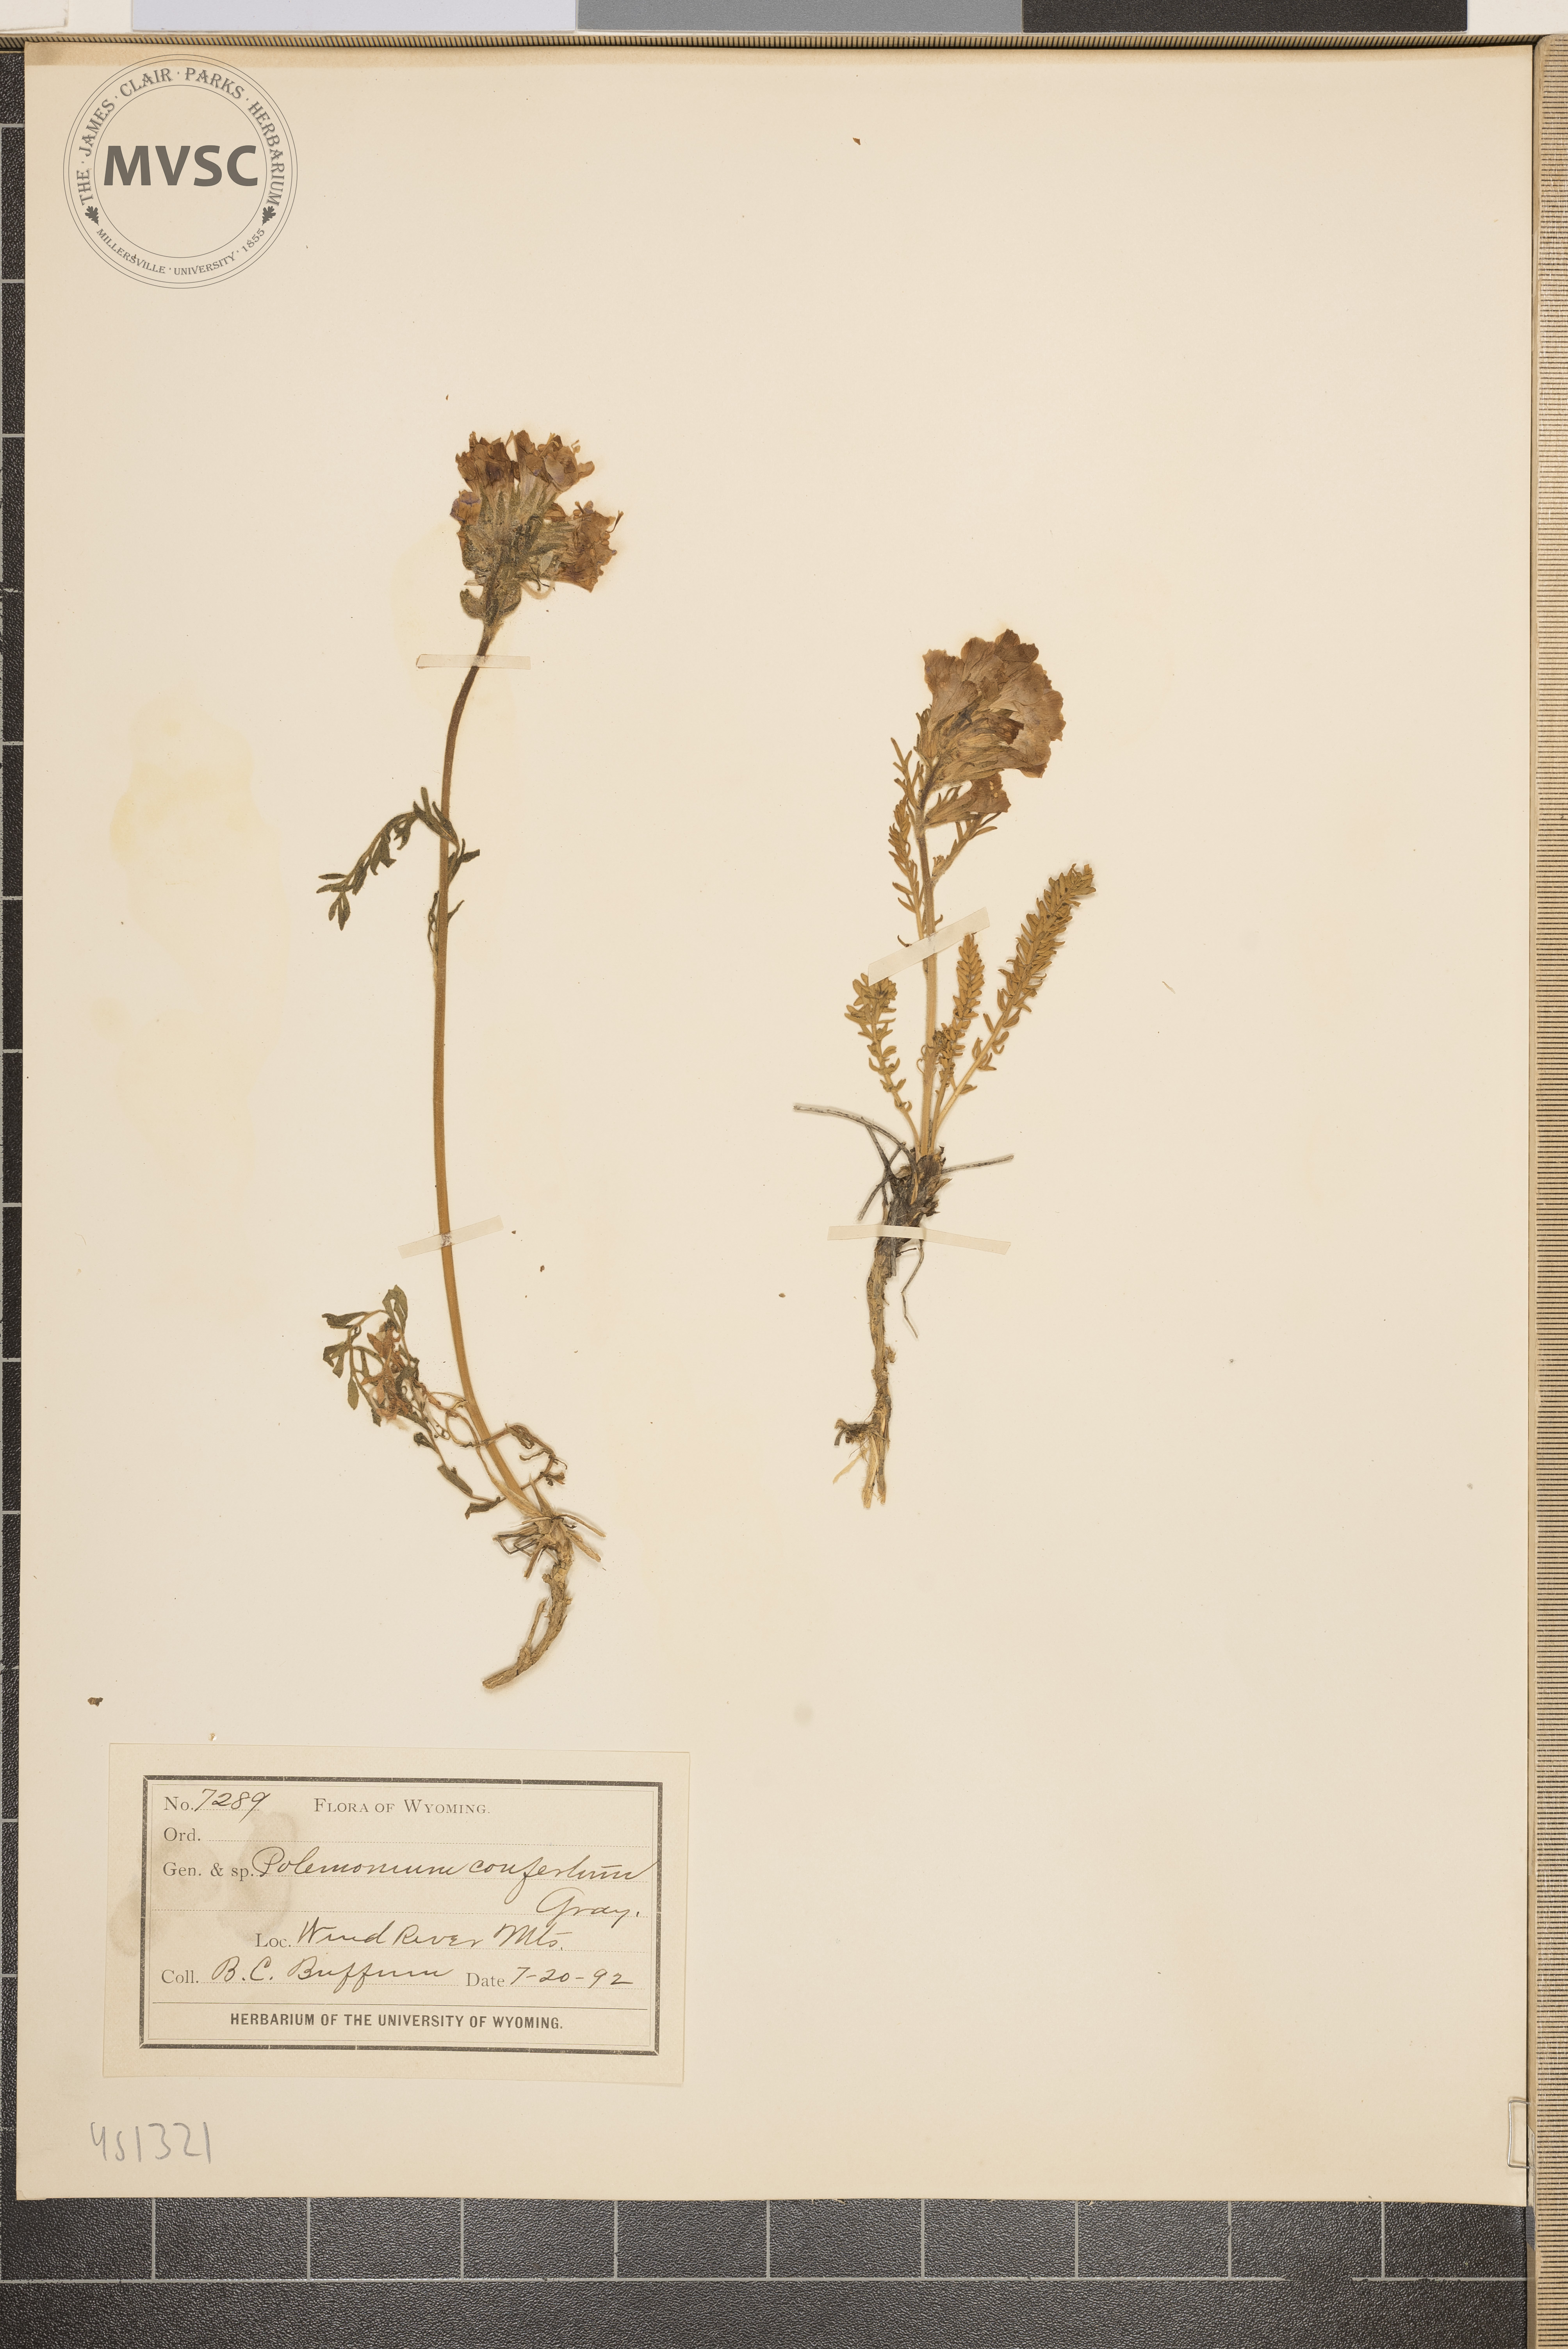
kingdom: Plantae
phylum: Tracheophyta
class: Magnoliopsida
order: Ericales
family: Polemoniaceae
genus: Polemonium
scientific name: Polemonium viscosum
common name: Skunk jacob's-ladder
